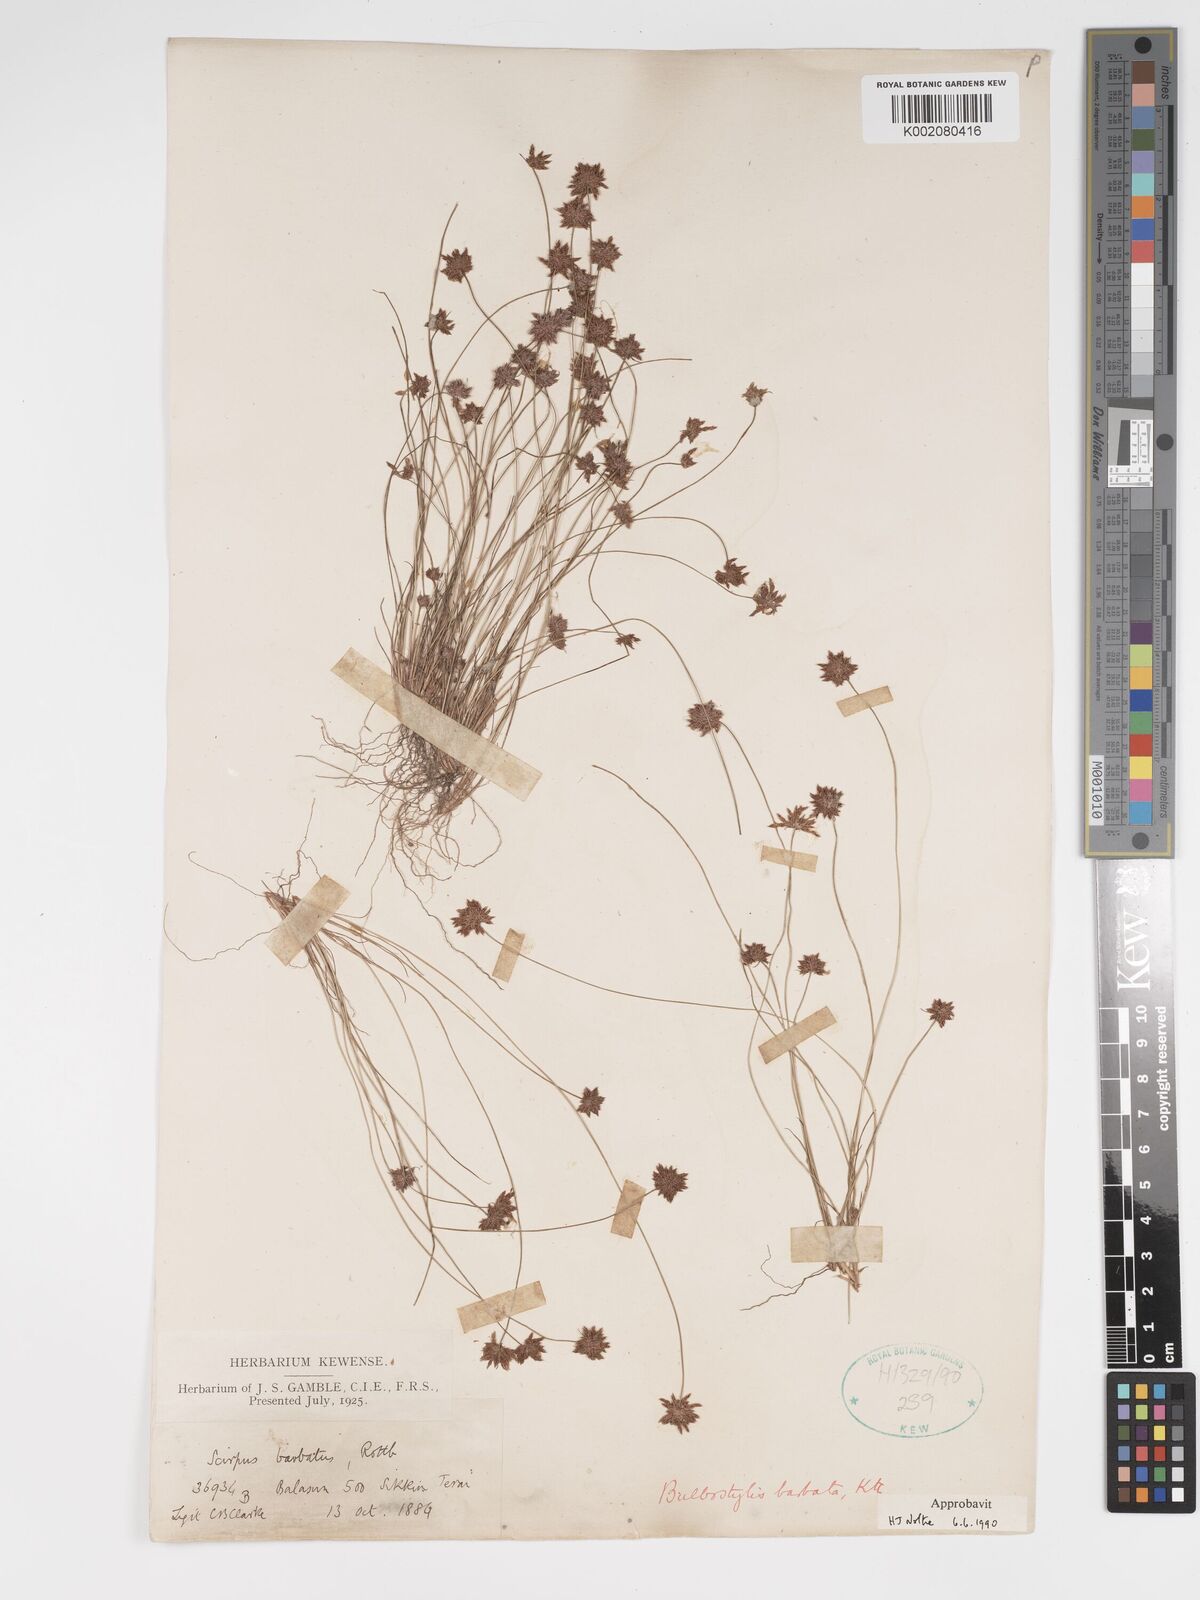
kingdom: Plantae
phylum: Tracheophyta
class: Liliopsida
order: Poales
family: Cyperaceae
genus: Bulbostylis
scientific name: Bulbostylis barbata
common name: Watergrass
